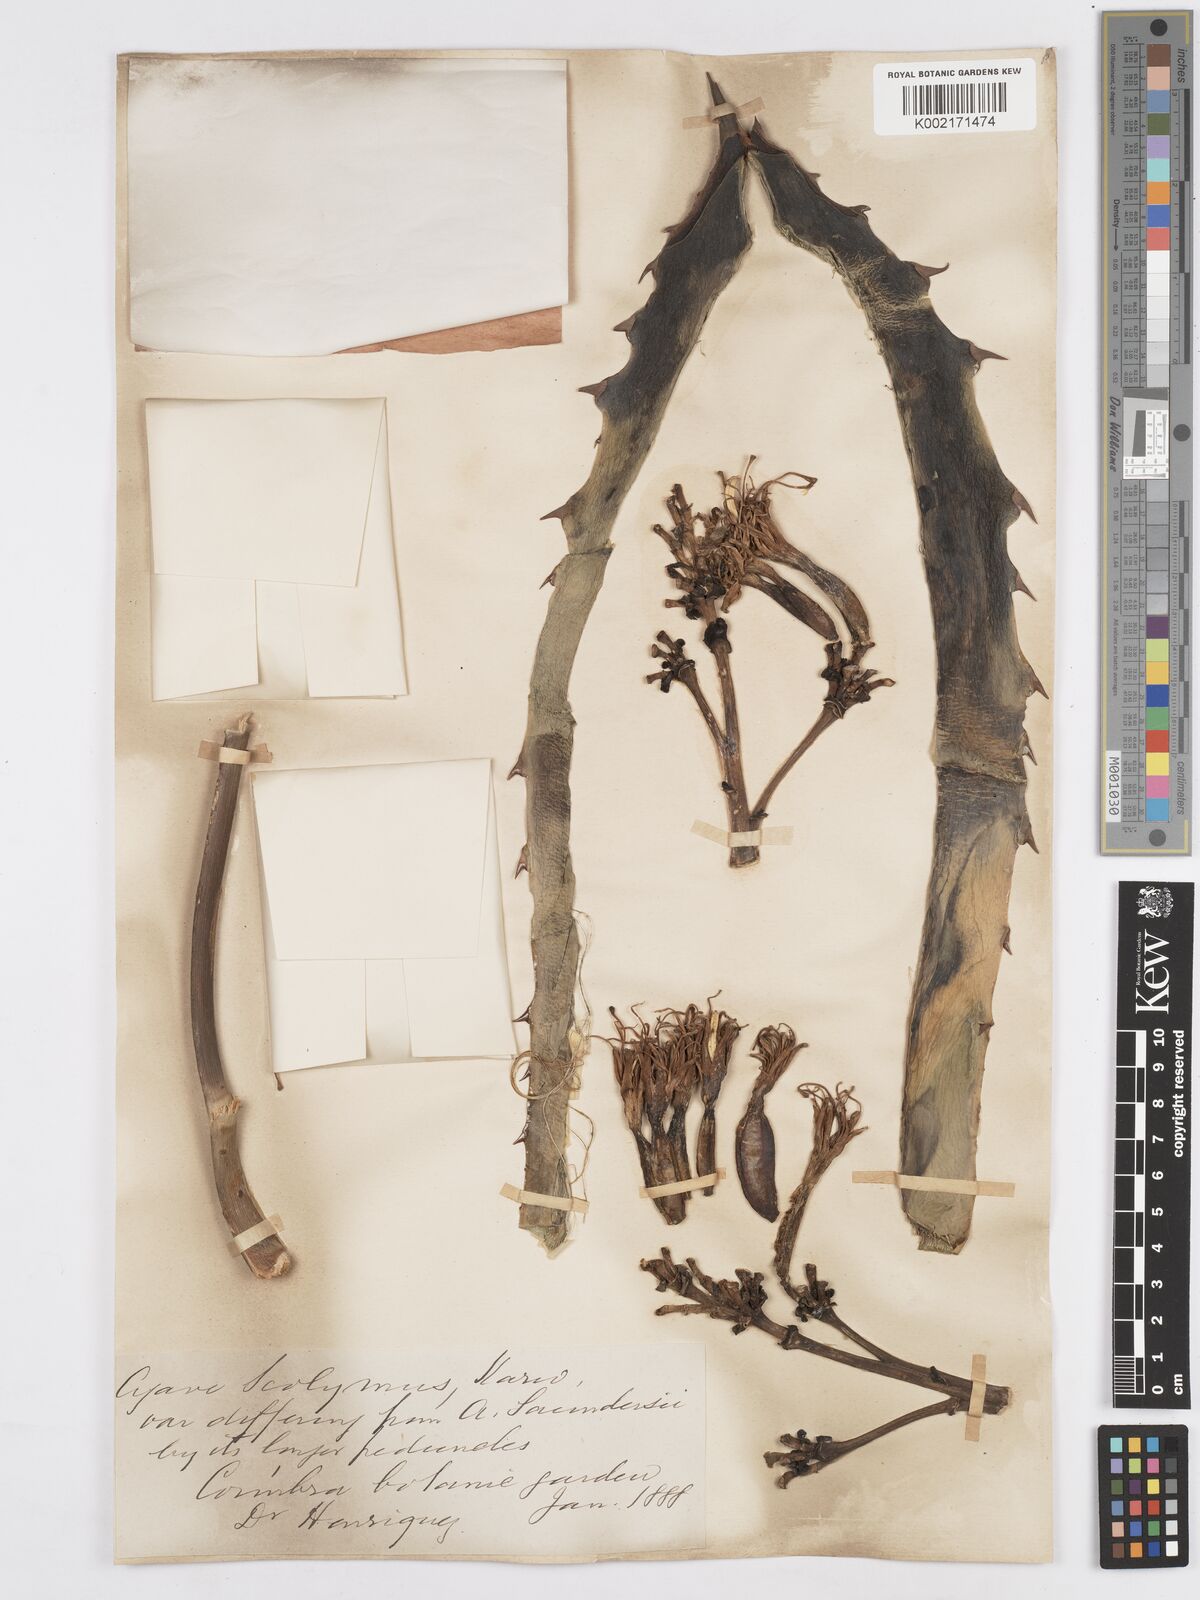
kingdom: Plantae
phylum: Tracheophyta
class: Liliopsida
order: Asparagales
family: Asparagaceae
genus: Agave
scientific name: Agave potatorum
